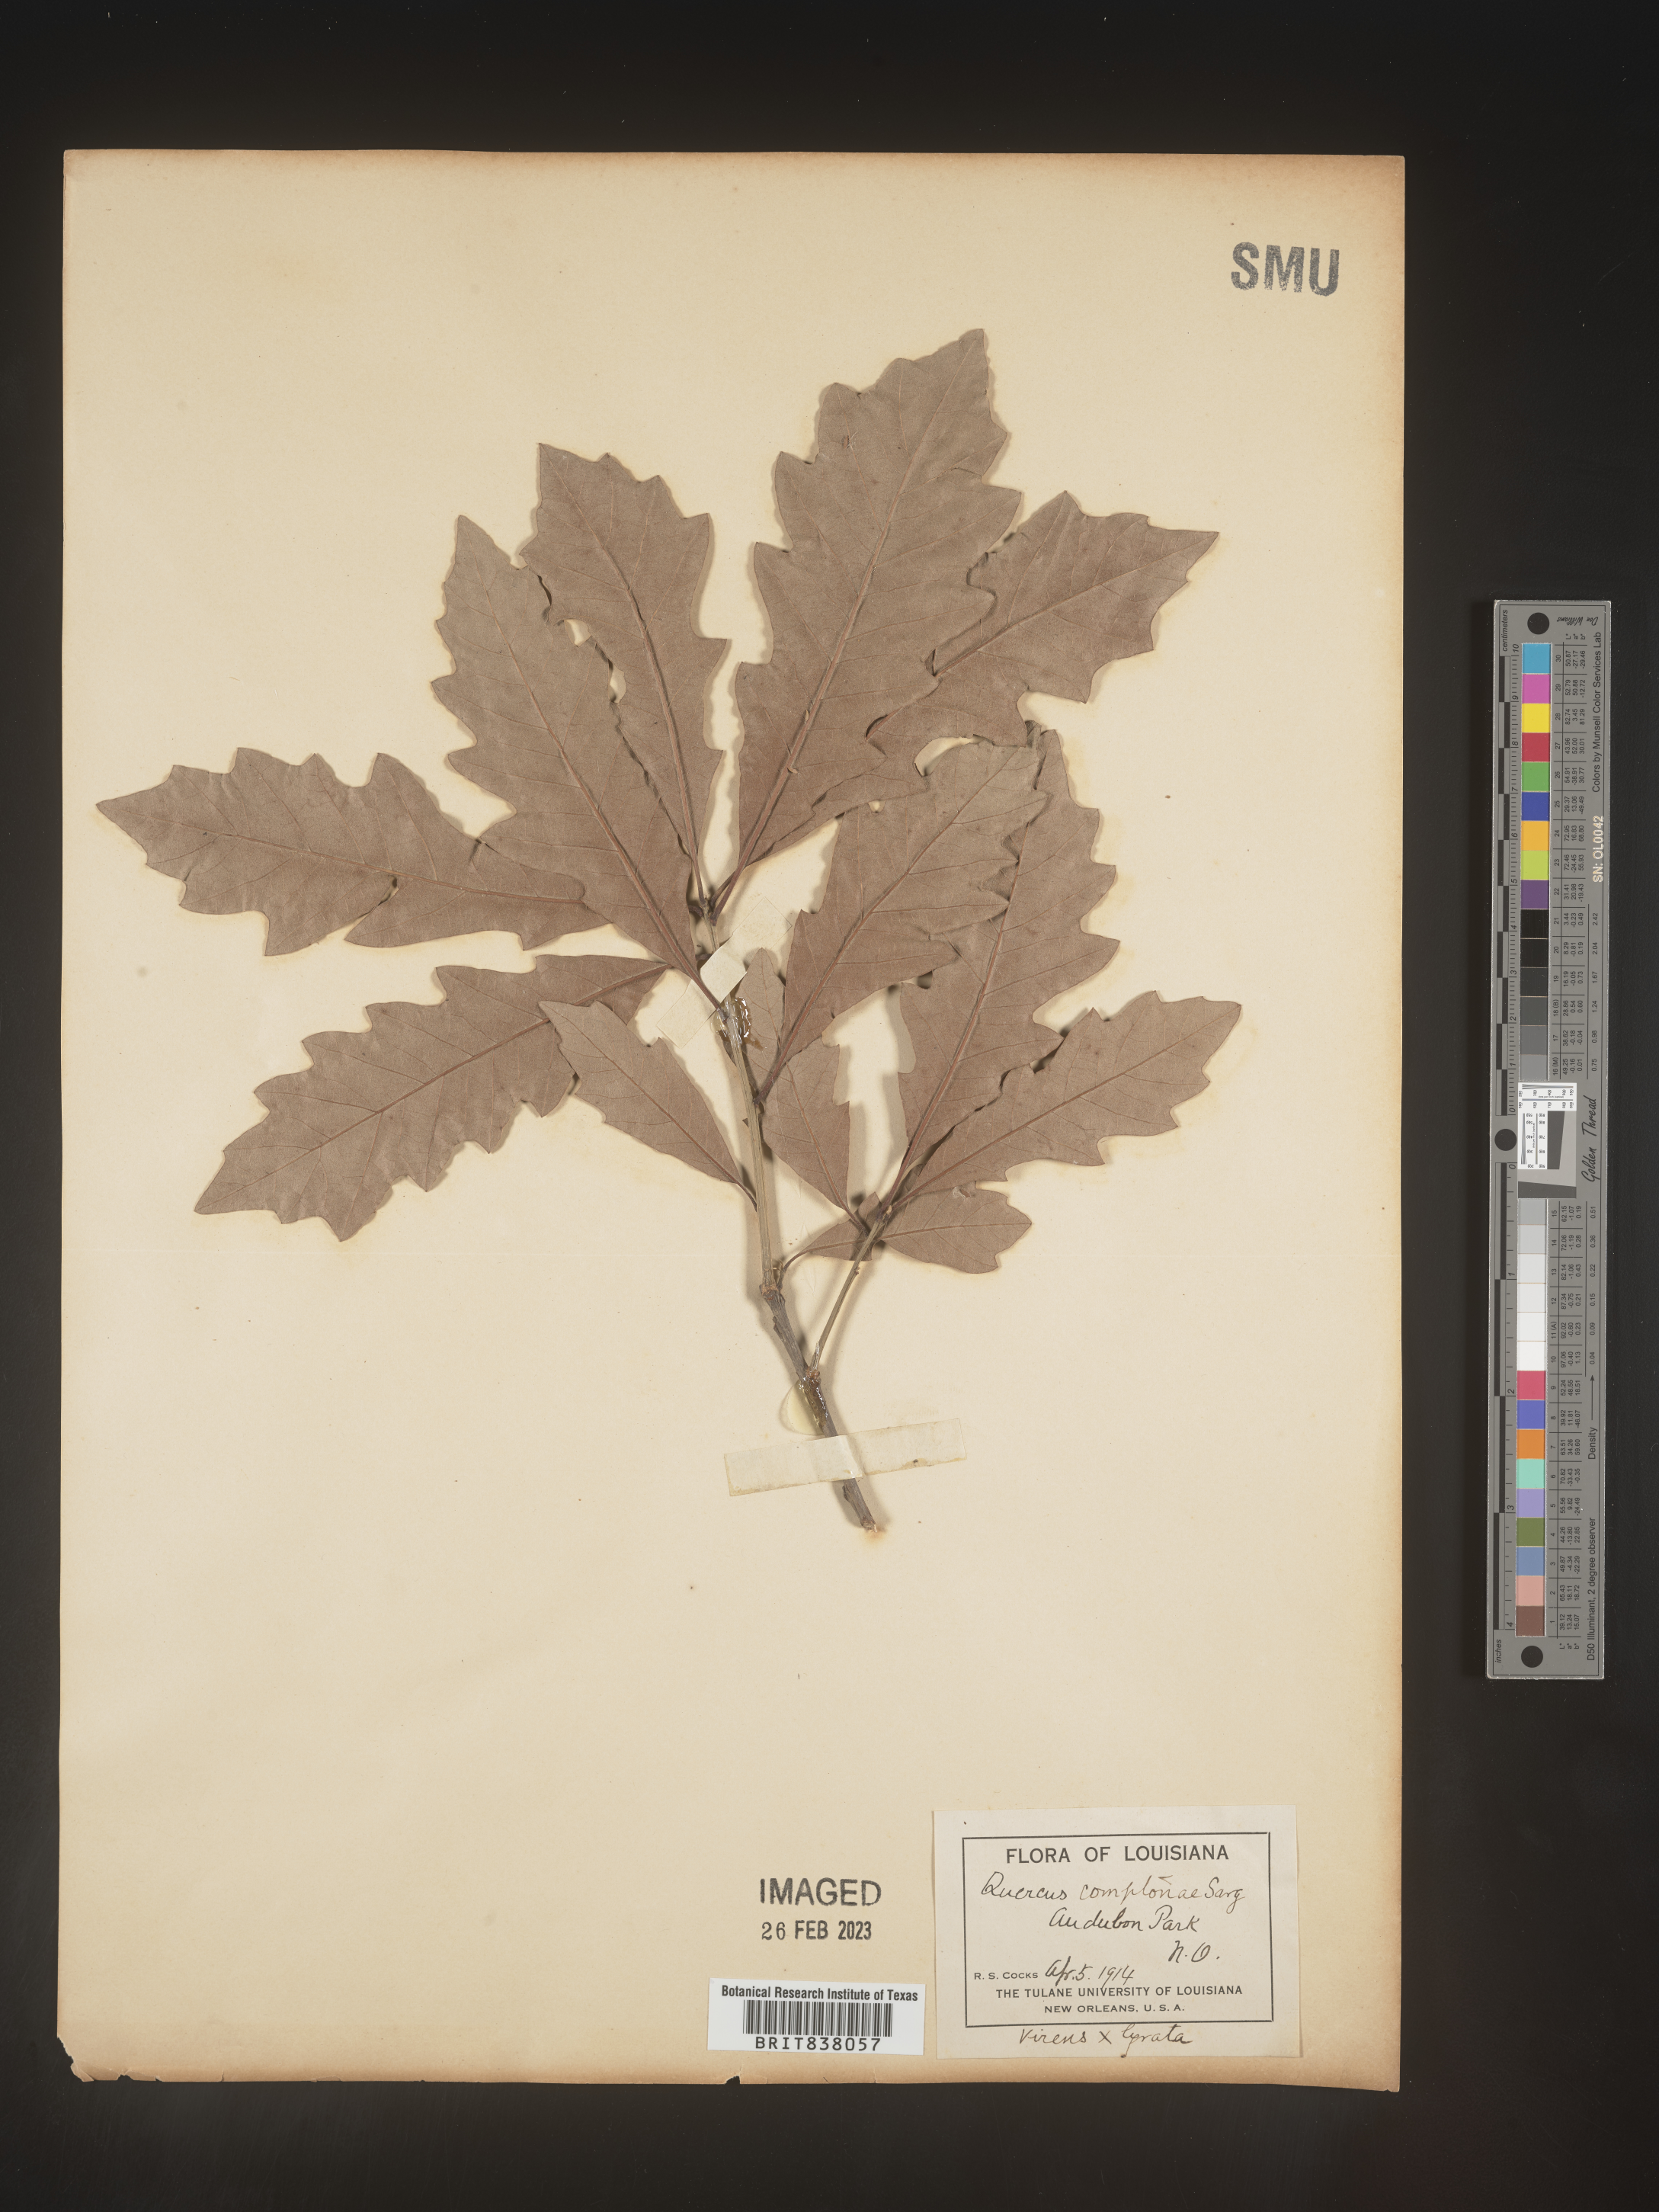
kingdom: Plantae
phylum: Tracheophyta
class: Magnoliopsida
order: Fagales
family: Fagaceae
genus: Quercus
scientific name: Quercus comptoniae
